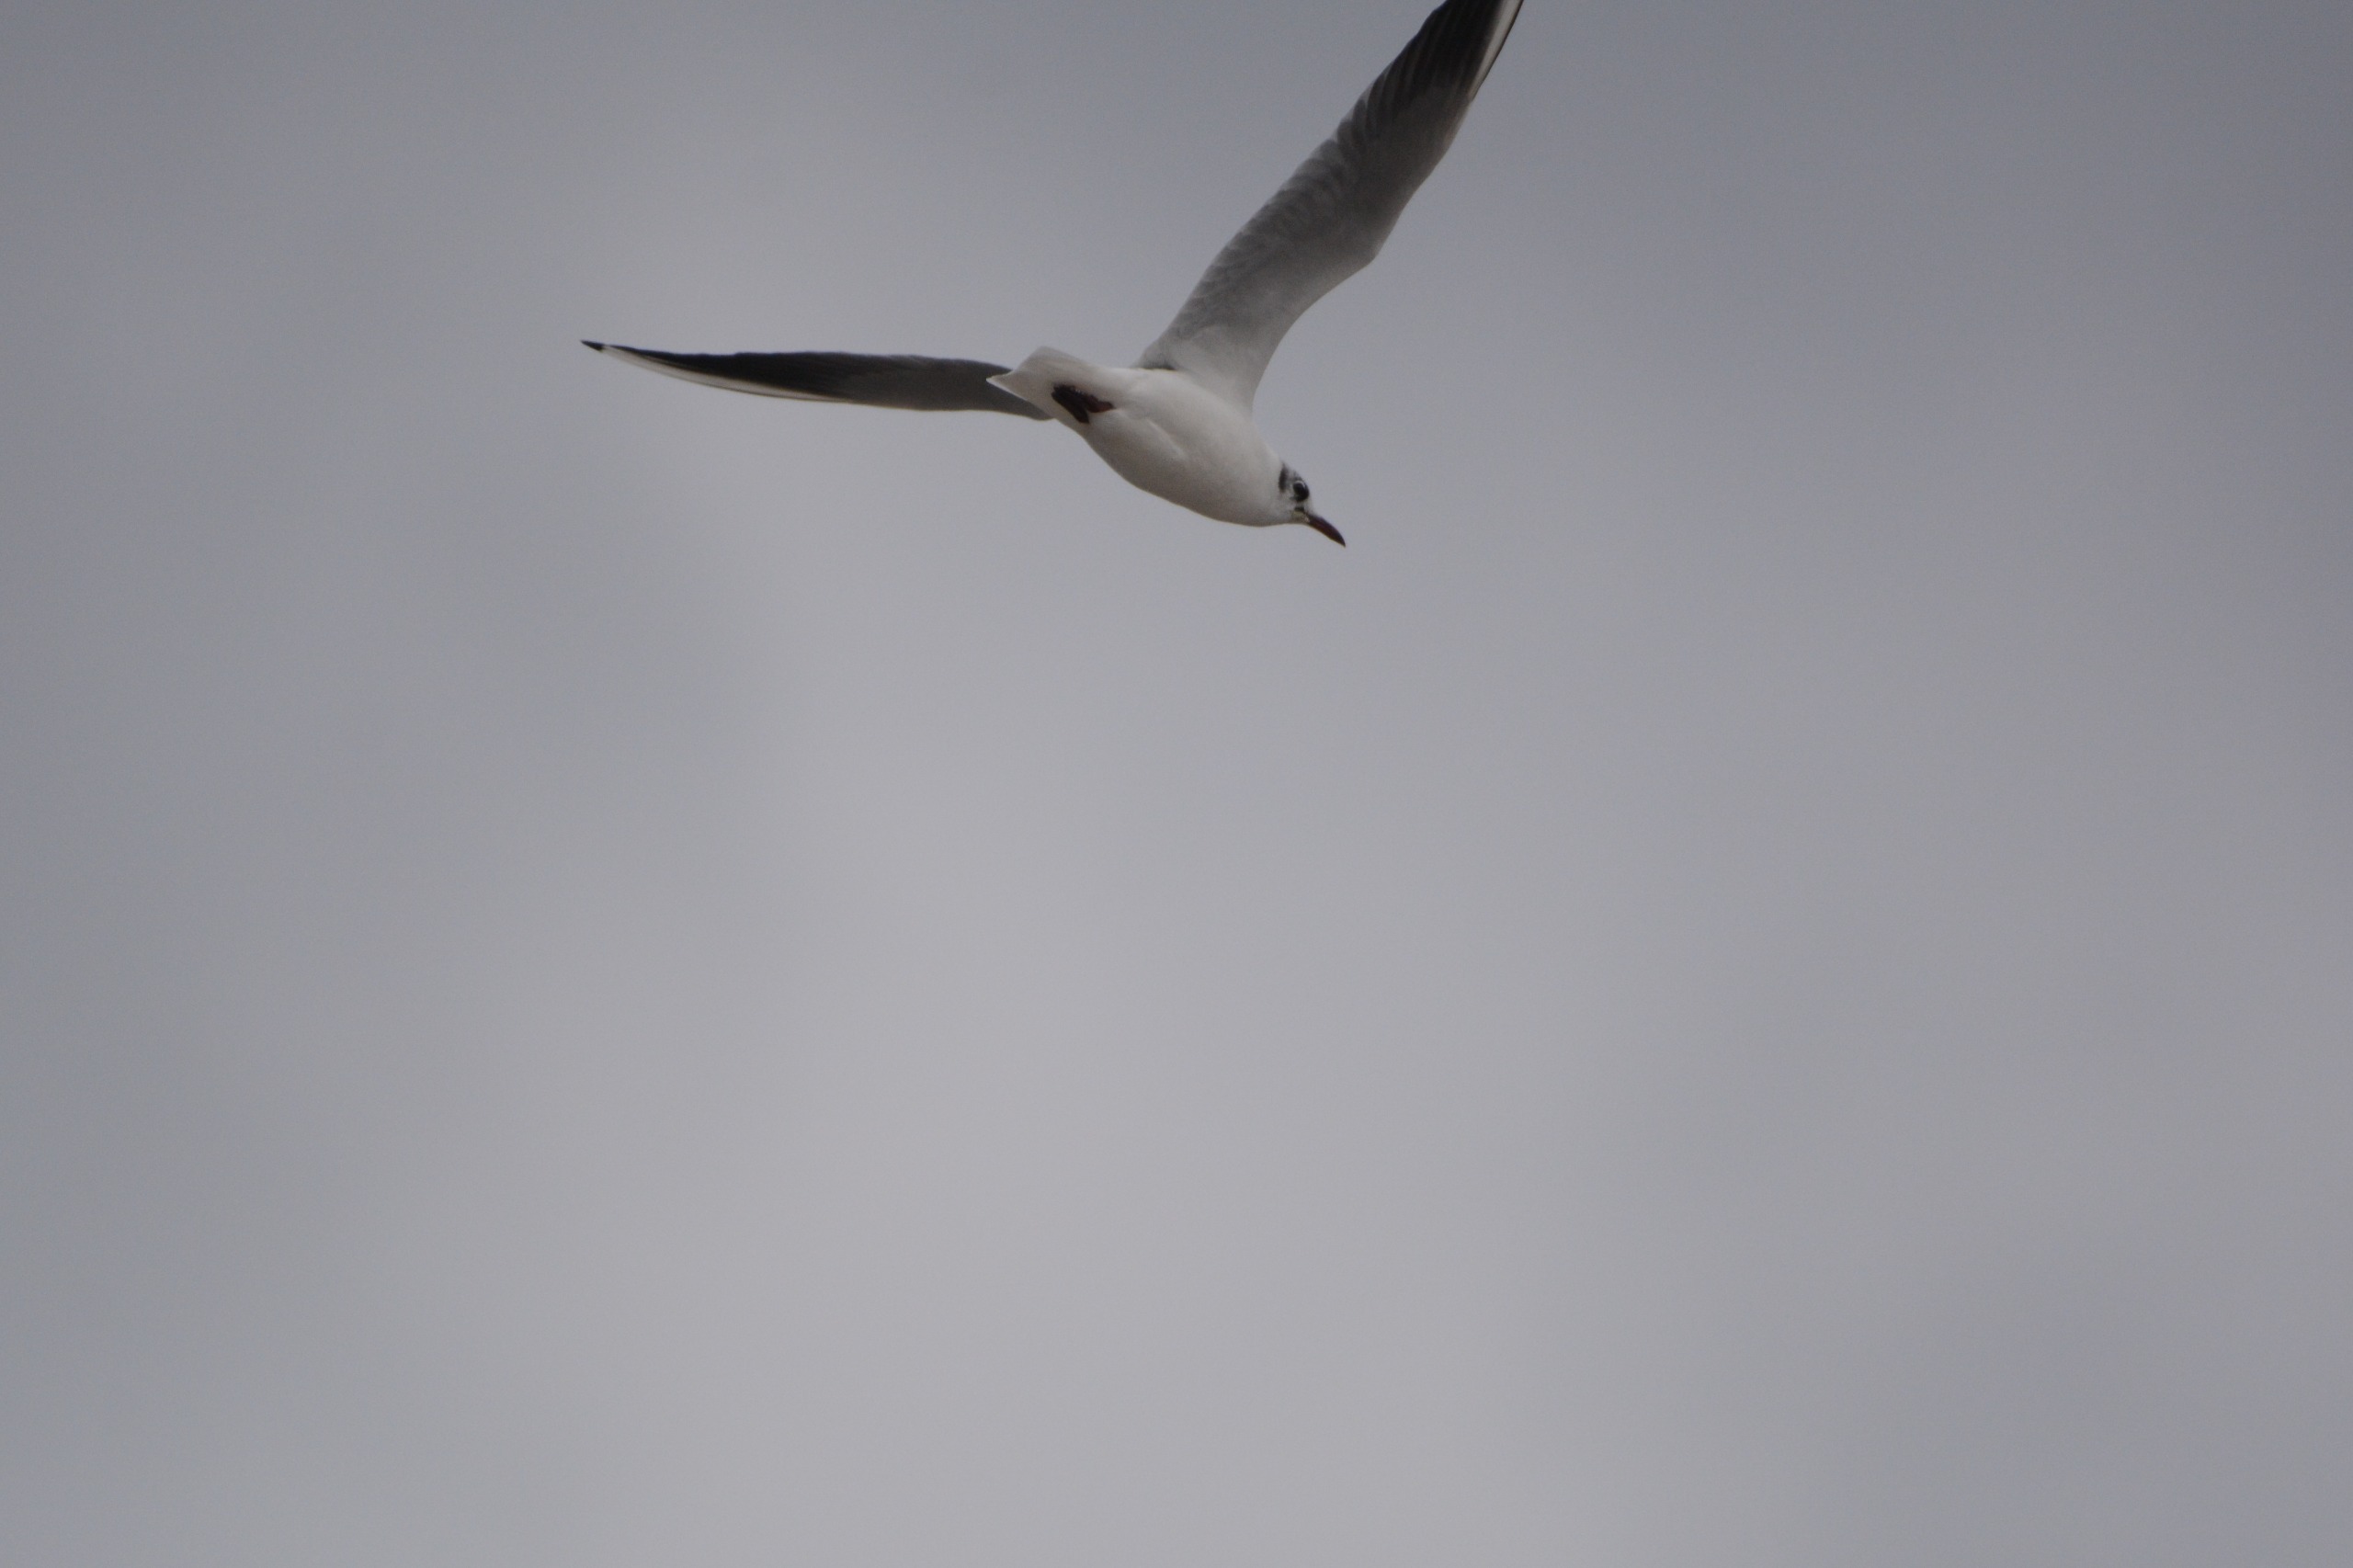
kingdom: Animalia
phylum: Chordata
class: Aves
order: Charadriiformes
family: Laridae
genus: Chroicocephalus
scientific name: Chroicocephalus ridibundus
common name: Hættemåge
